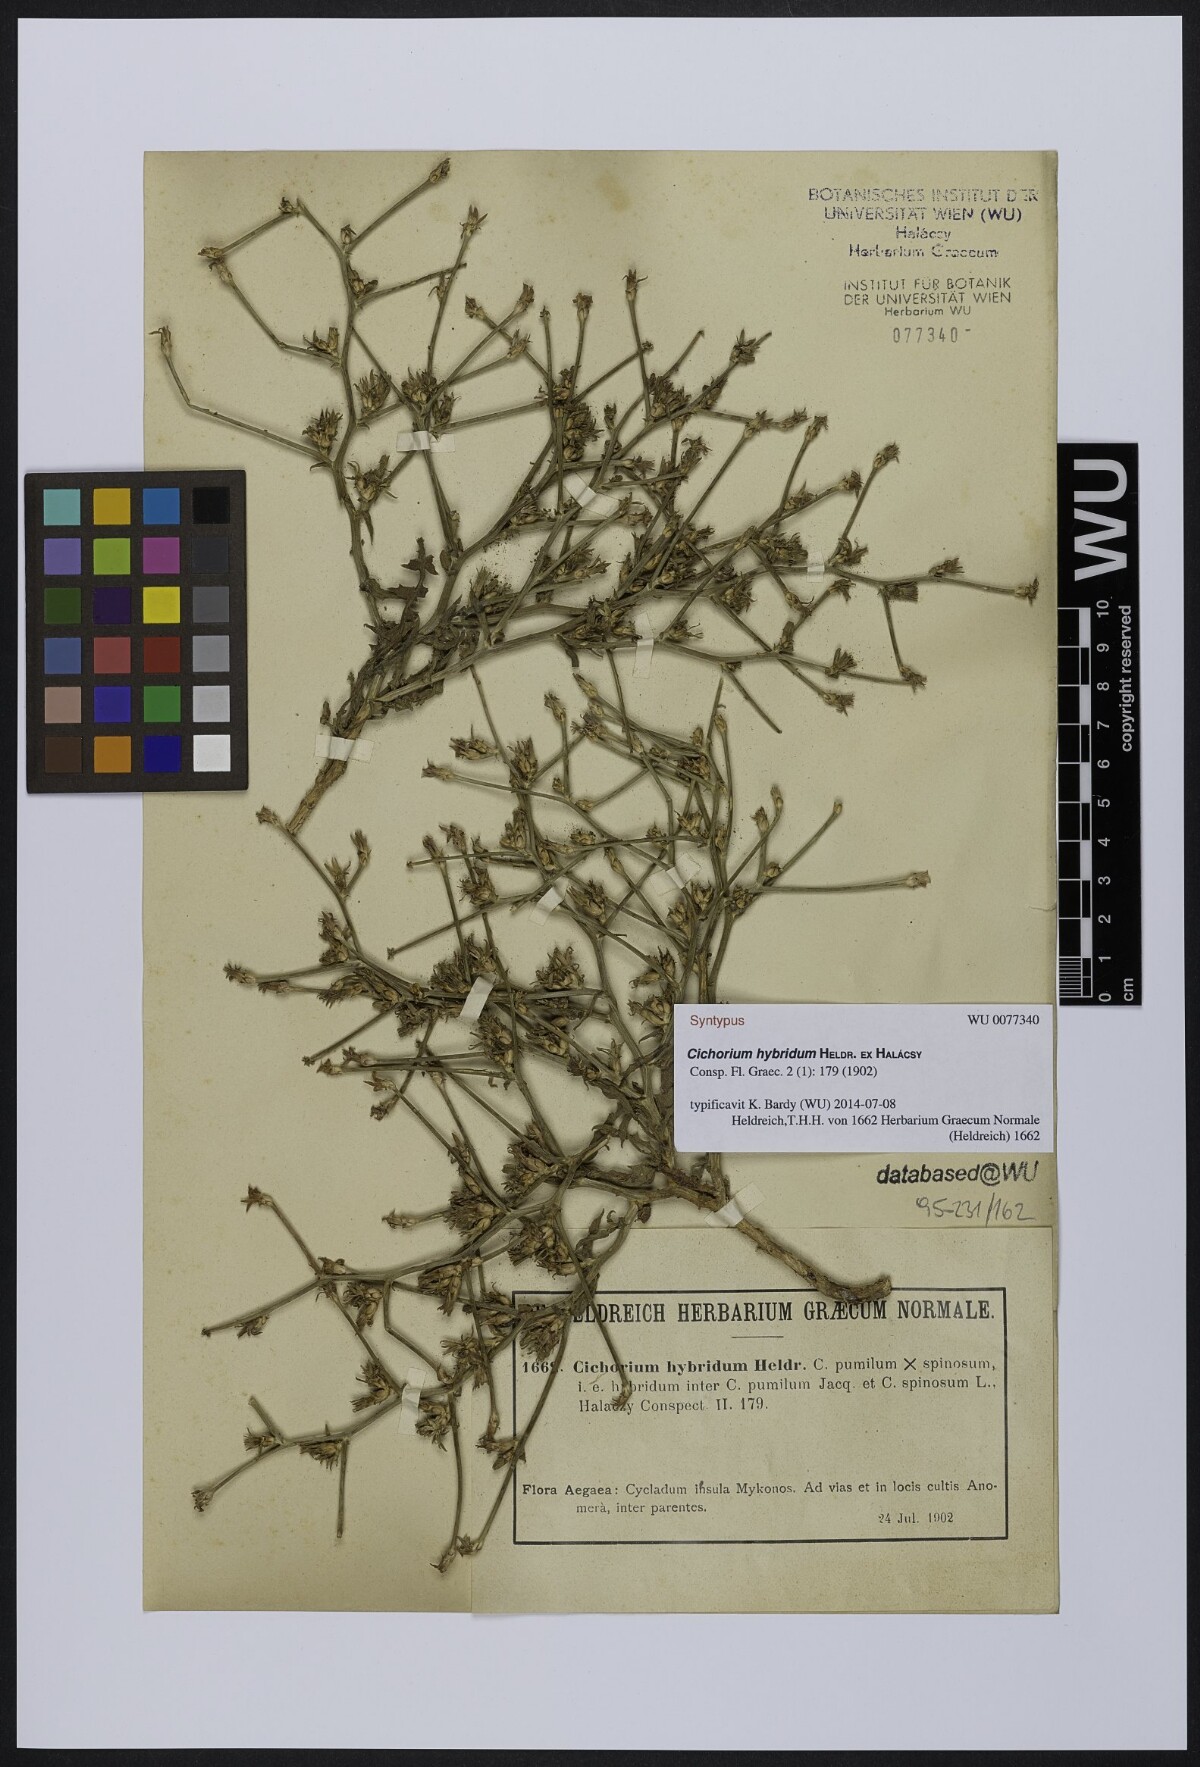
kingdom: Plantae
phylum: Tracheophyta
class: Magnoliopsida
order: Asterales
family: Asteraceae
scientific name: Asteraceae
